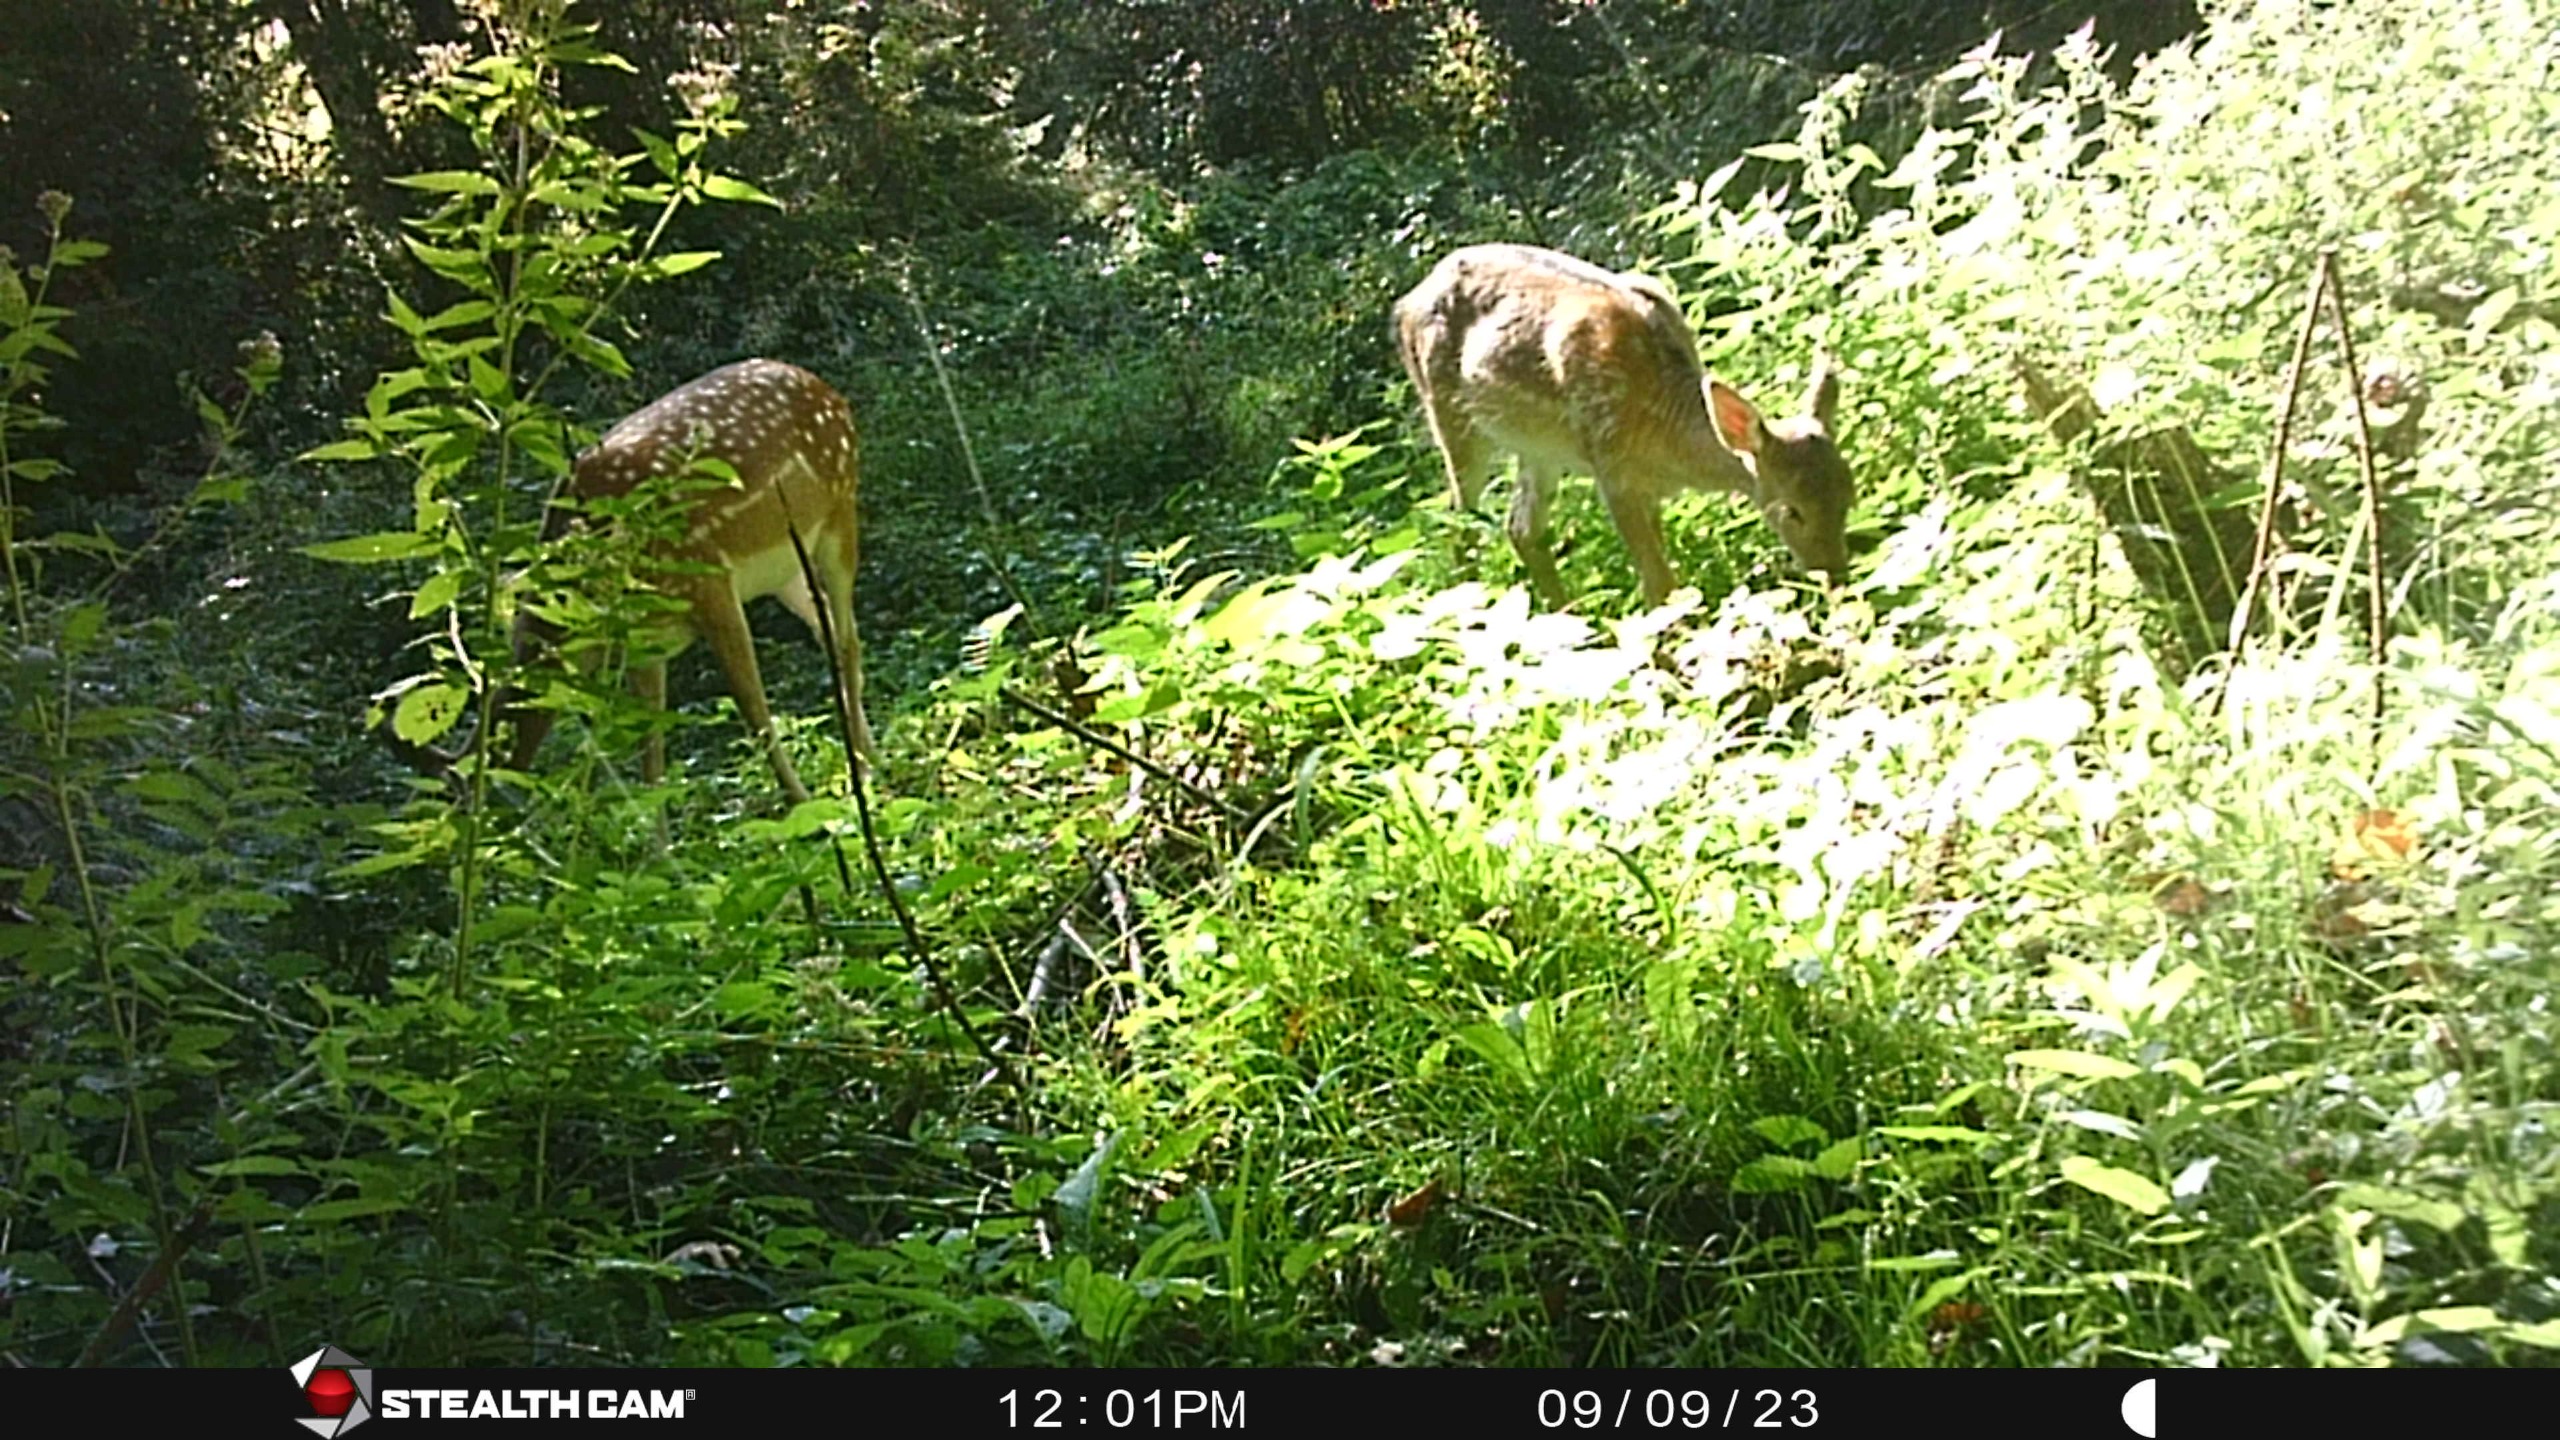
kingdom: Animalia
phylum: Chordata
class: Mammalia
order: Artiodactyla
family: Cervidae
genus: Dama
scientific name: Dama dama
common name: Dådyr
